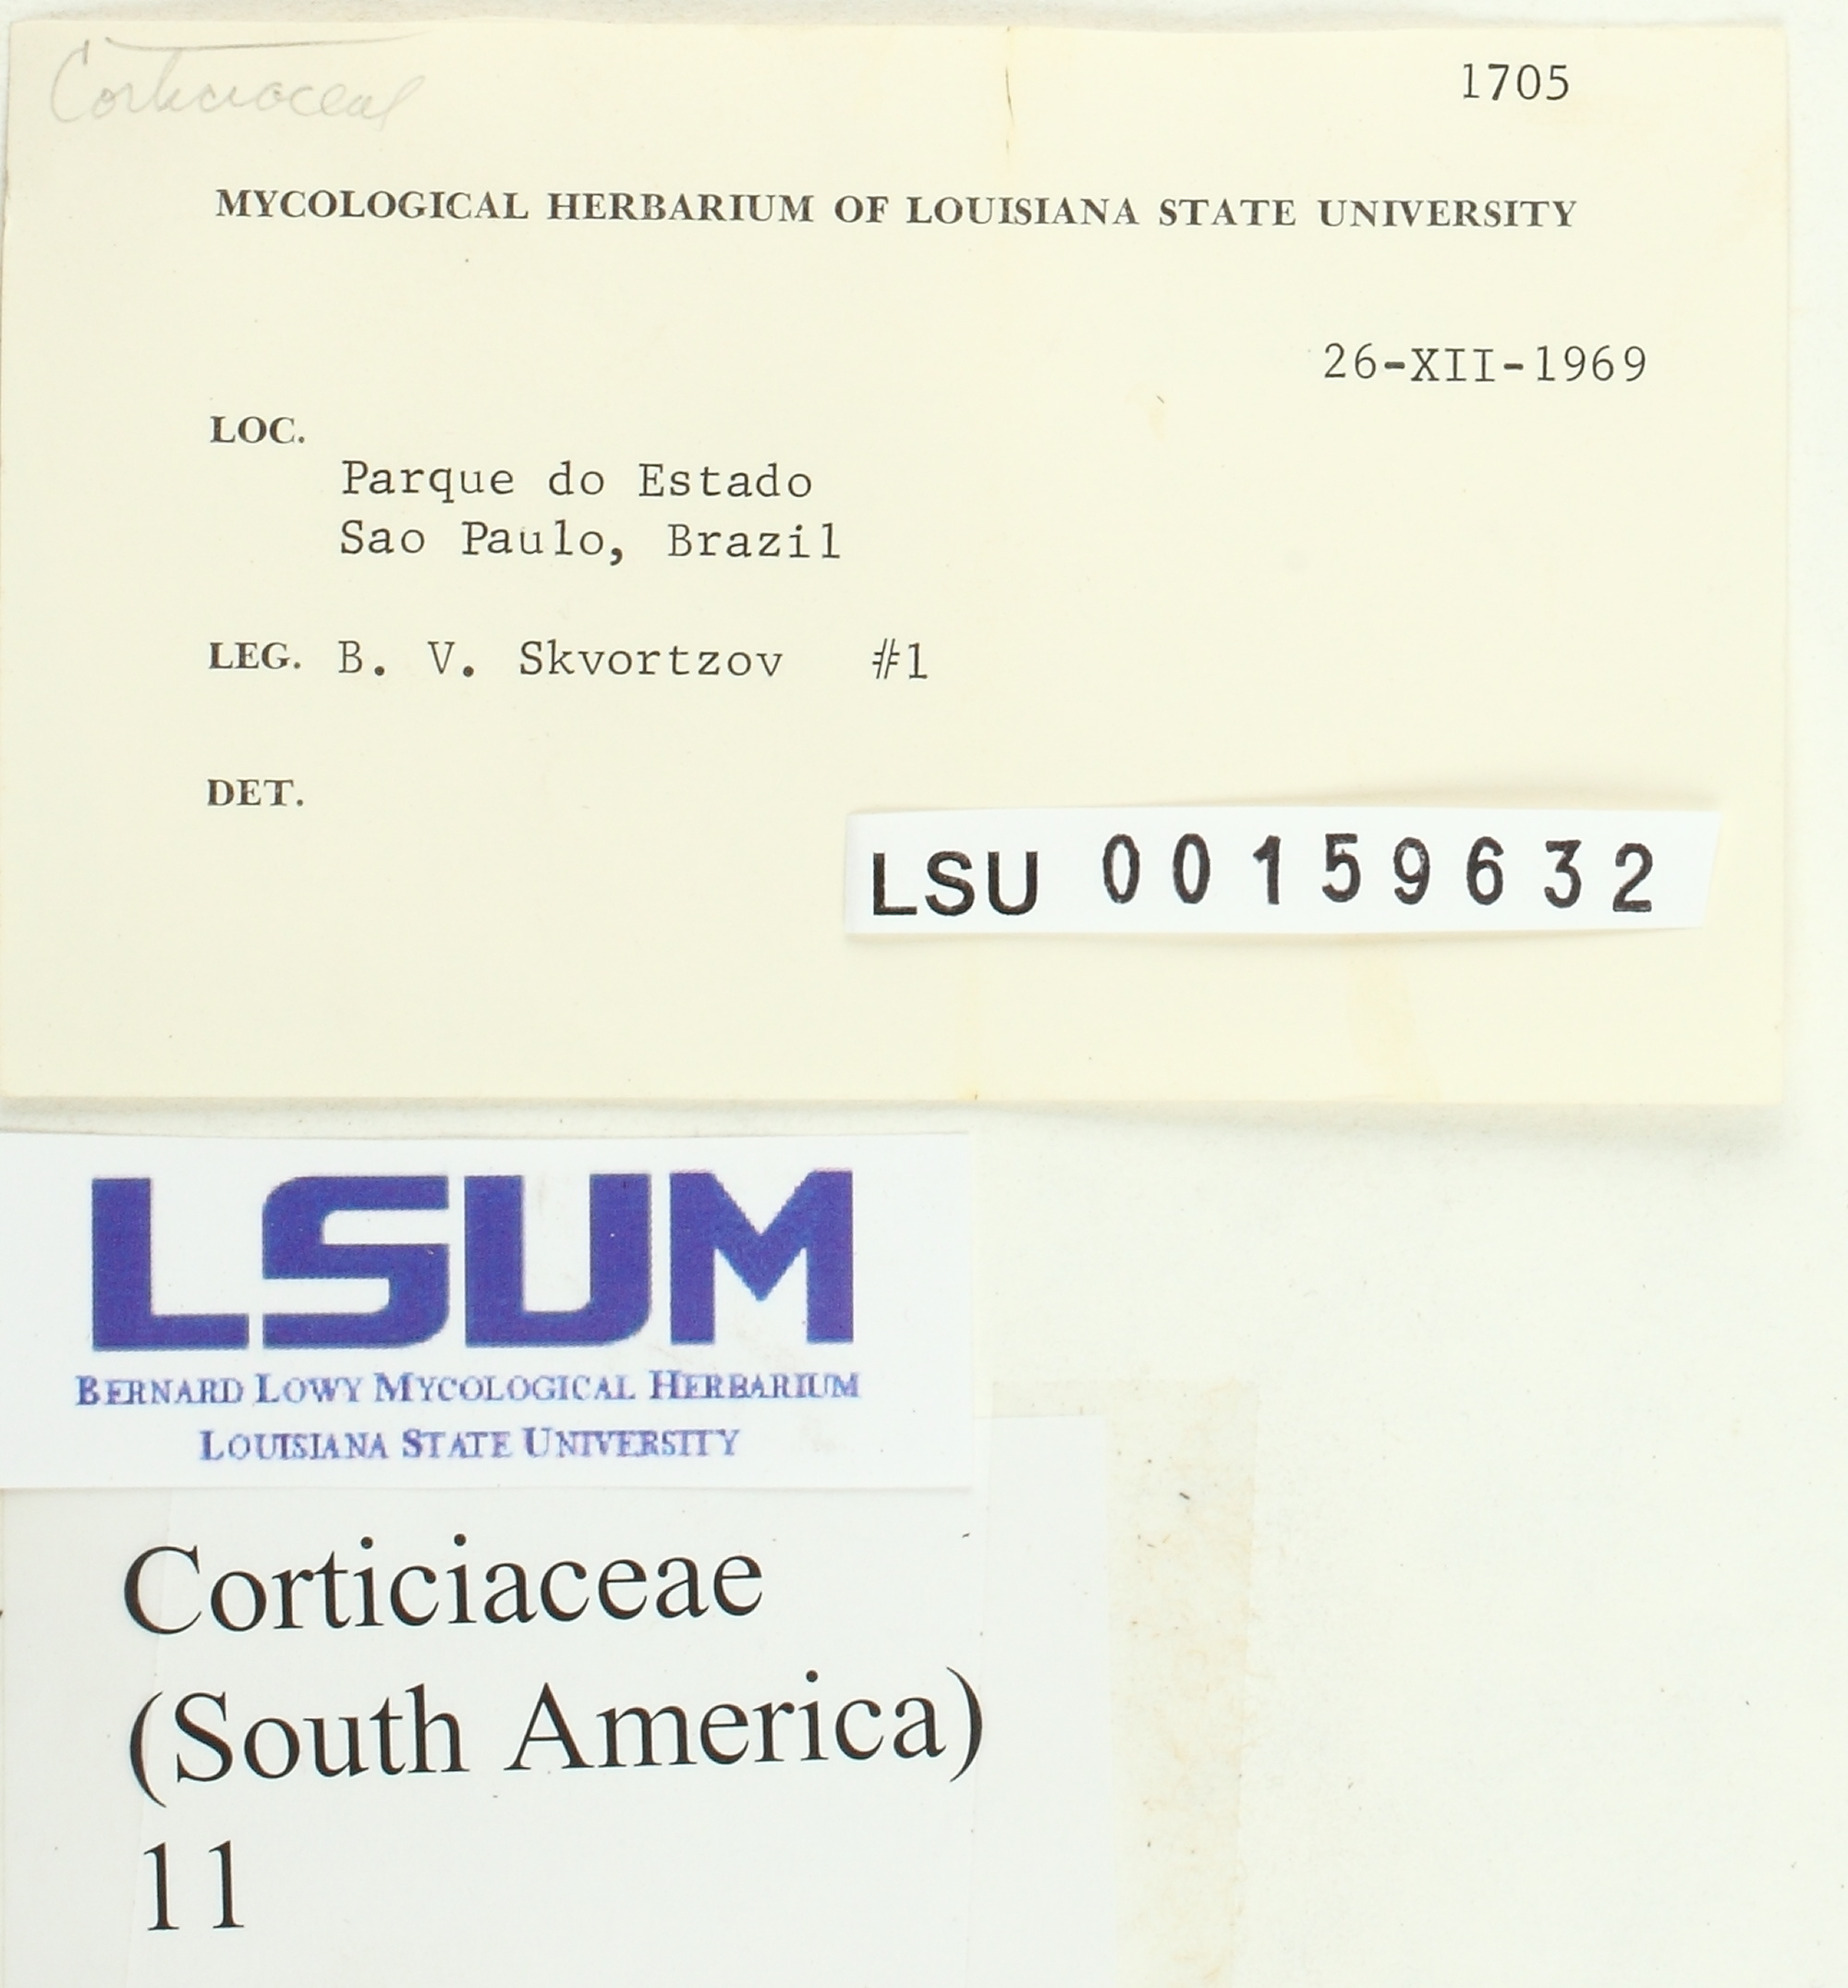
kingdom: Fungi
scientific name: Fungi
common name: Fungi
